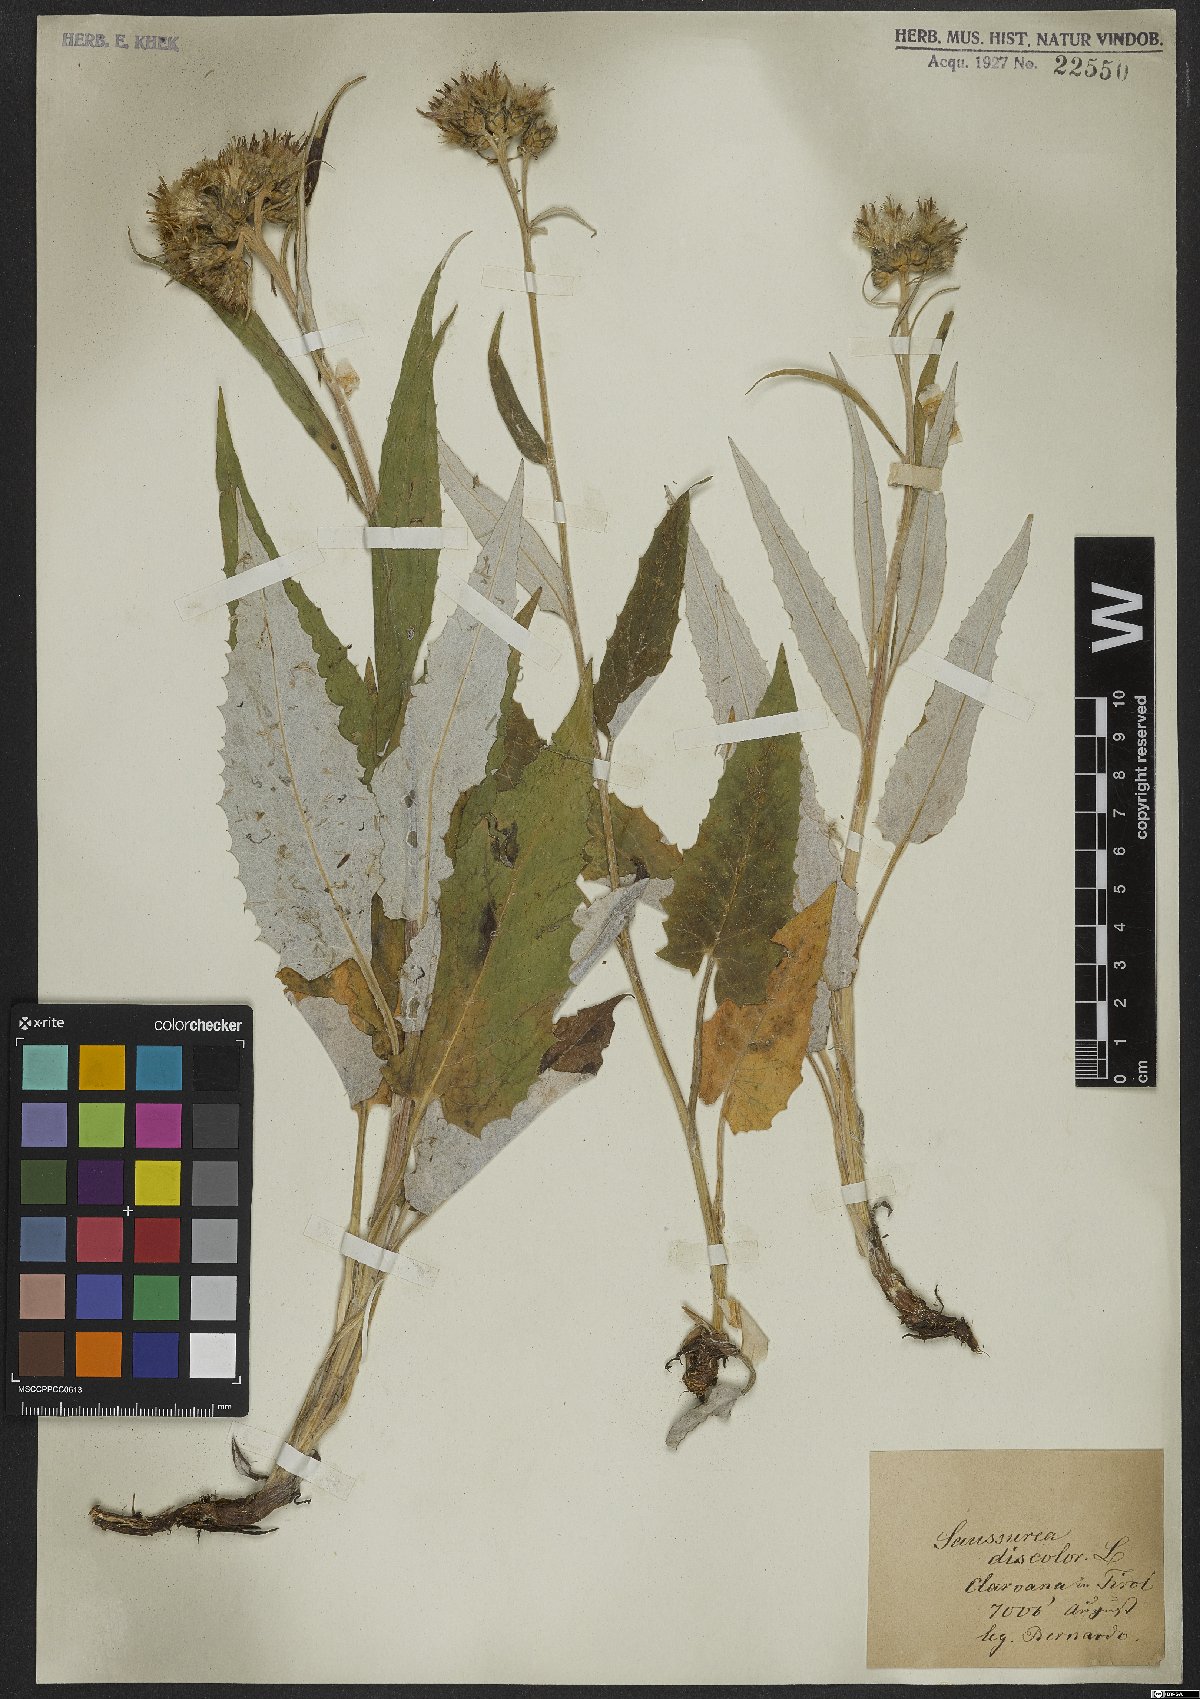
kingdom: Plantae
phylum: Tracheophyta
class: Magnoliopsida
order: Asterales
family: Asteraceae
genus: Saussurea
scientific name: Saussurea discolor
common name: Heart-leaved saussurea
